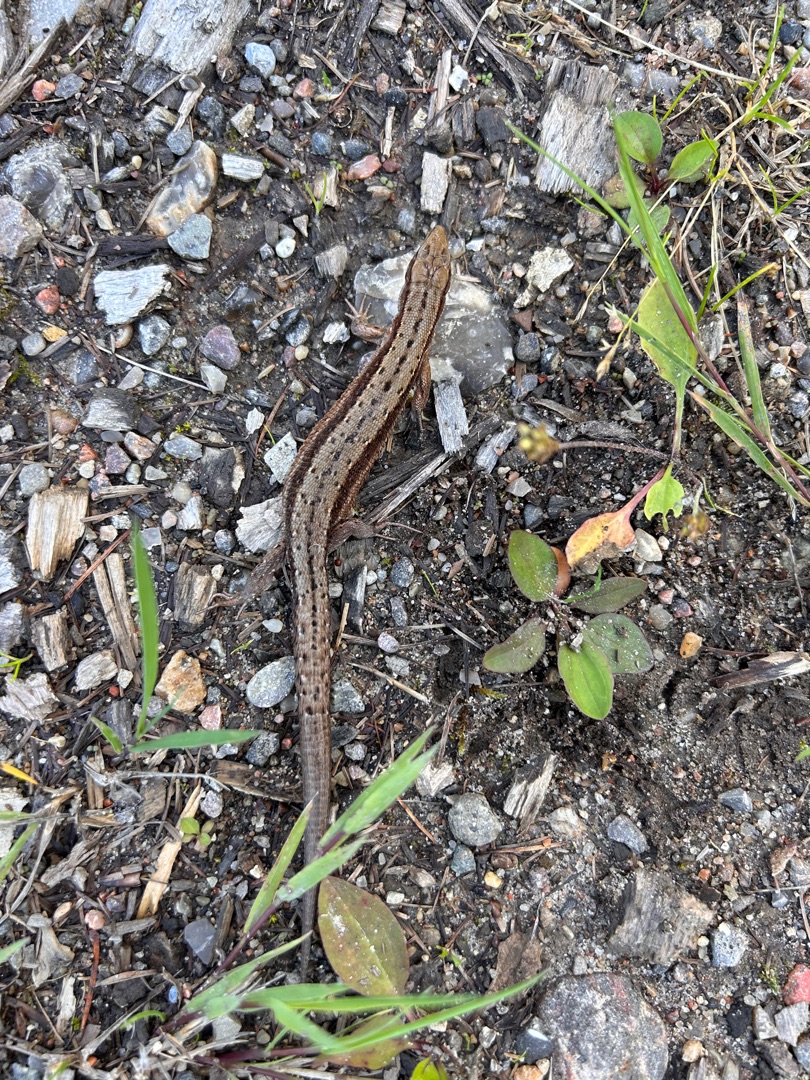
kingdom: Animalia
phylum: Chordata
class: Squamata
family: Lacertidae
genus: Zootoca
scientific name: Zootoca vivipara
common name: Skovfirben
